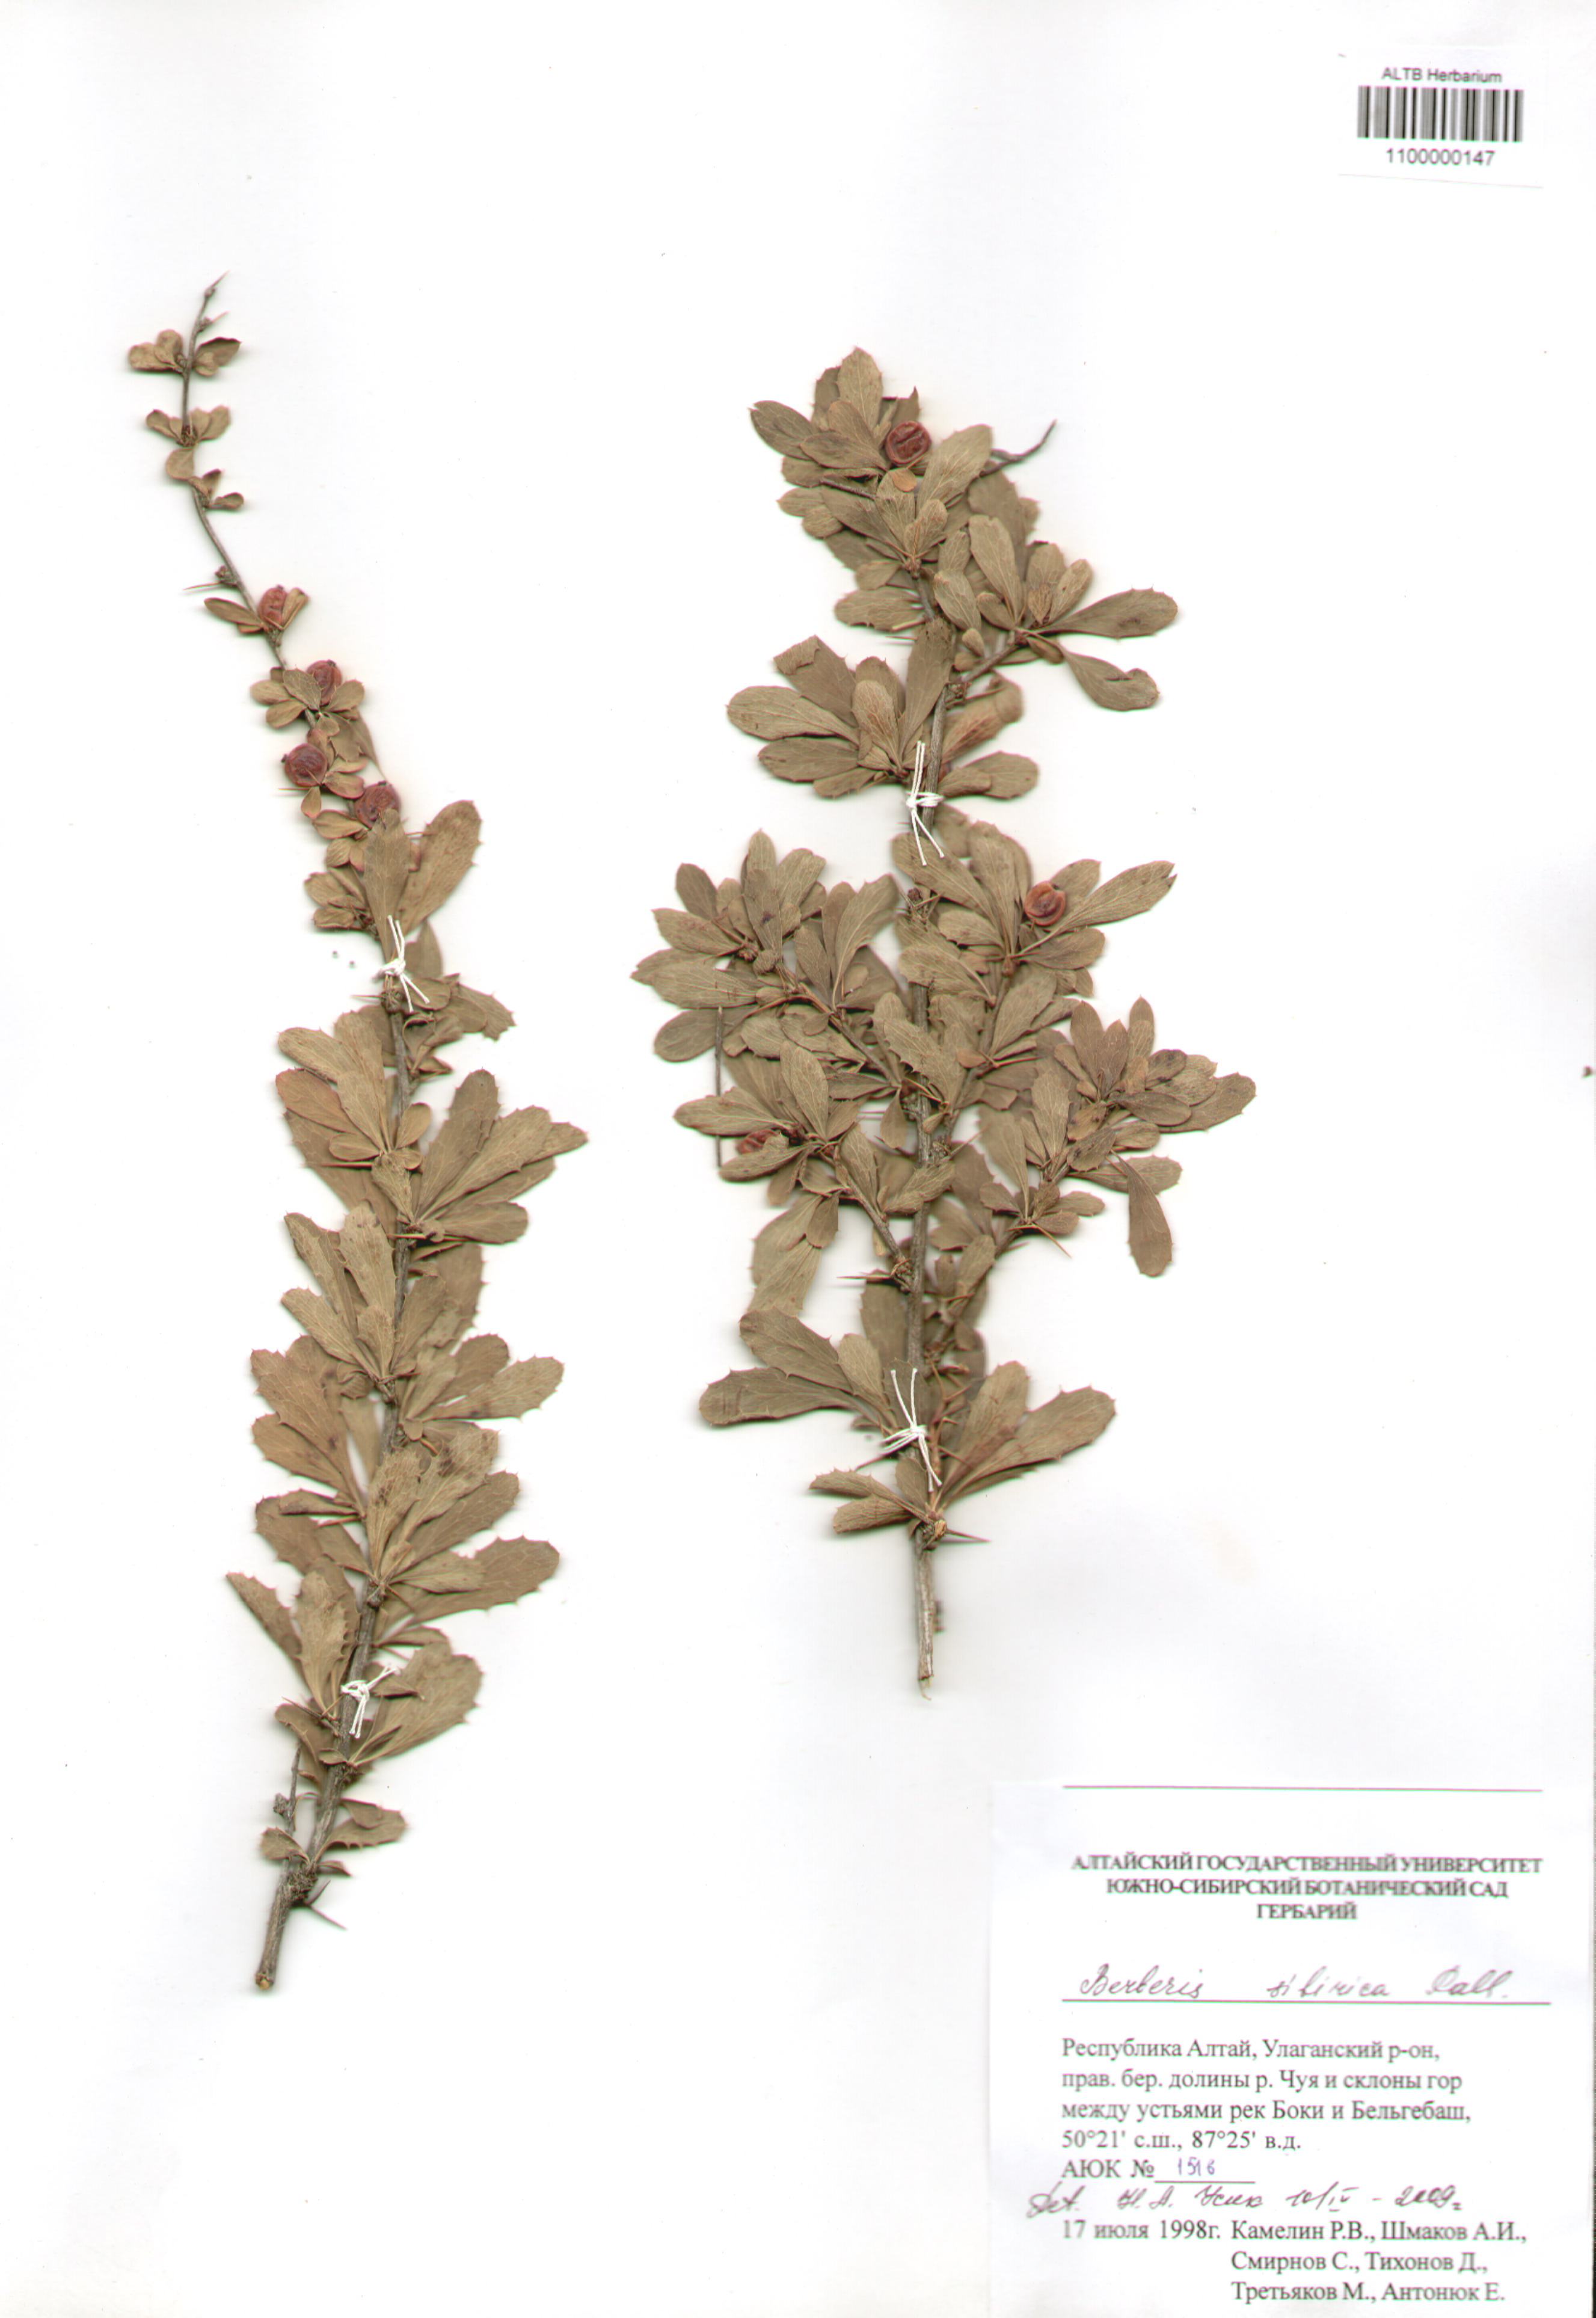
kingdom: Plantae
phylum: Tracheophyta
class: Magnoliopsida
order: Ranunculales
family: Berberidaceae
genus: Berberis
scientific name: Berberis sibirica
